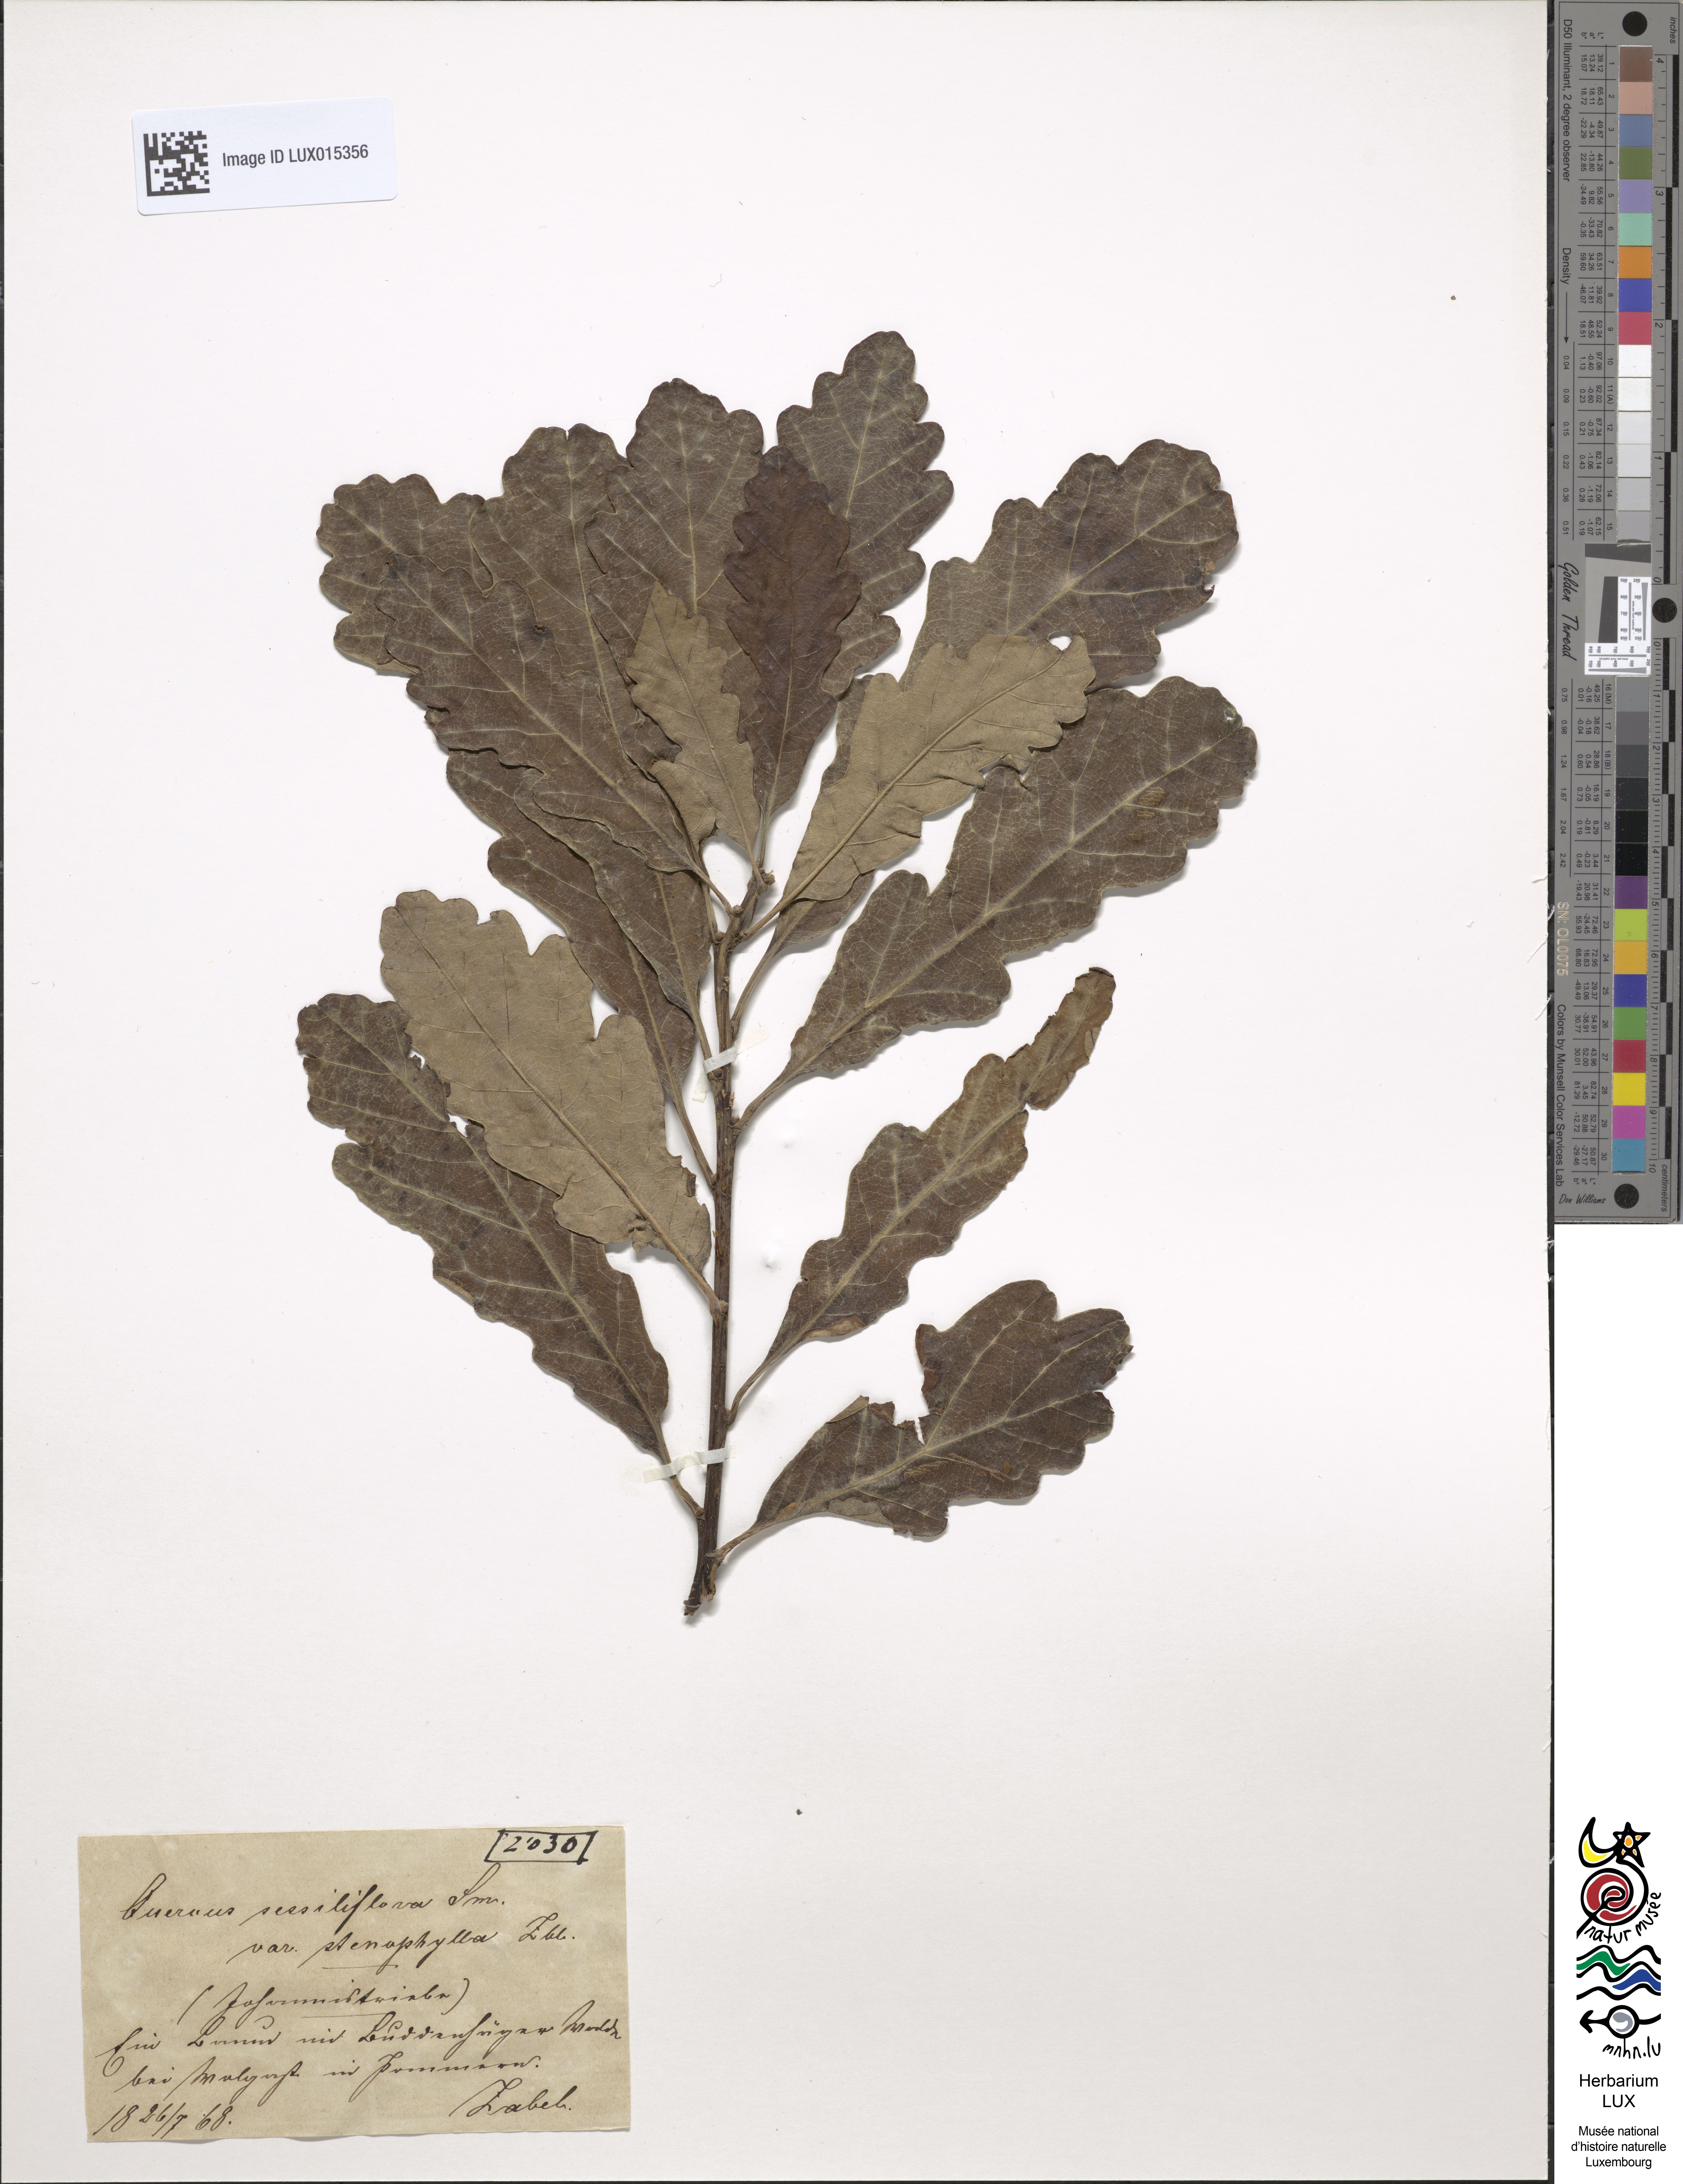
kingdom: Plantae
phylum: Tracheophyta
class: Magnoliopsida
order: Fagales
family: Fagaceae
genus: Quercus
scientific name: Quercus petraea
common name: Sessile oak
